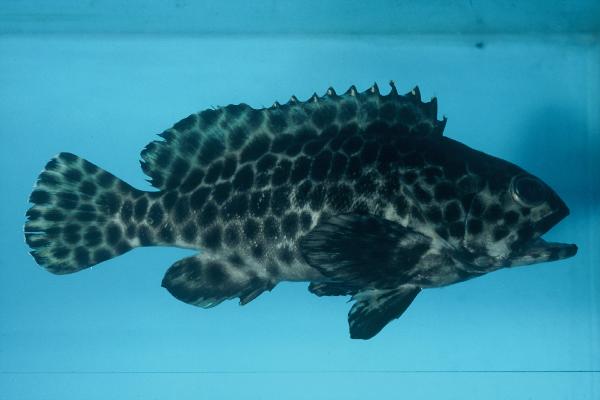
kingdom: Animalia
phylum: Chordata
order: Perciformes
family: Serranidae
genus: Epinephelus
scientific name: Epinephelus quoyanus
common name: Longfin grouper
